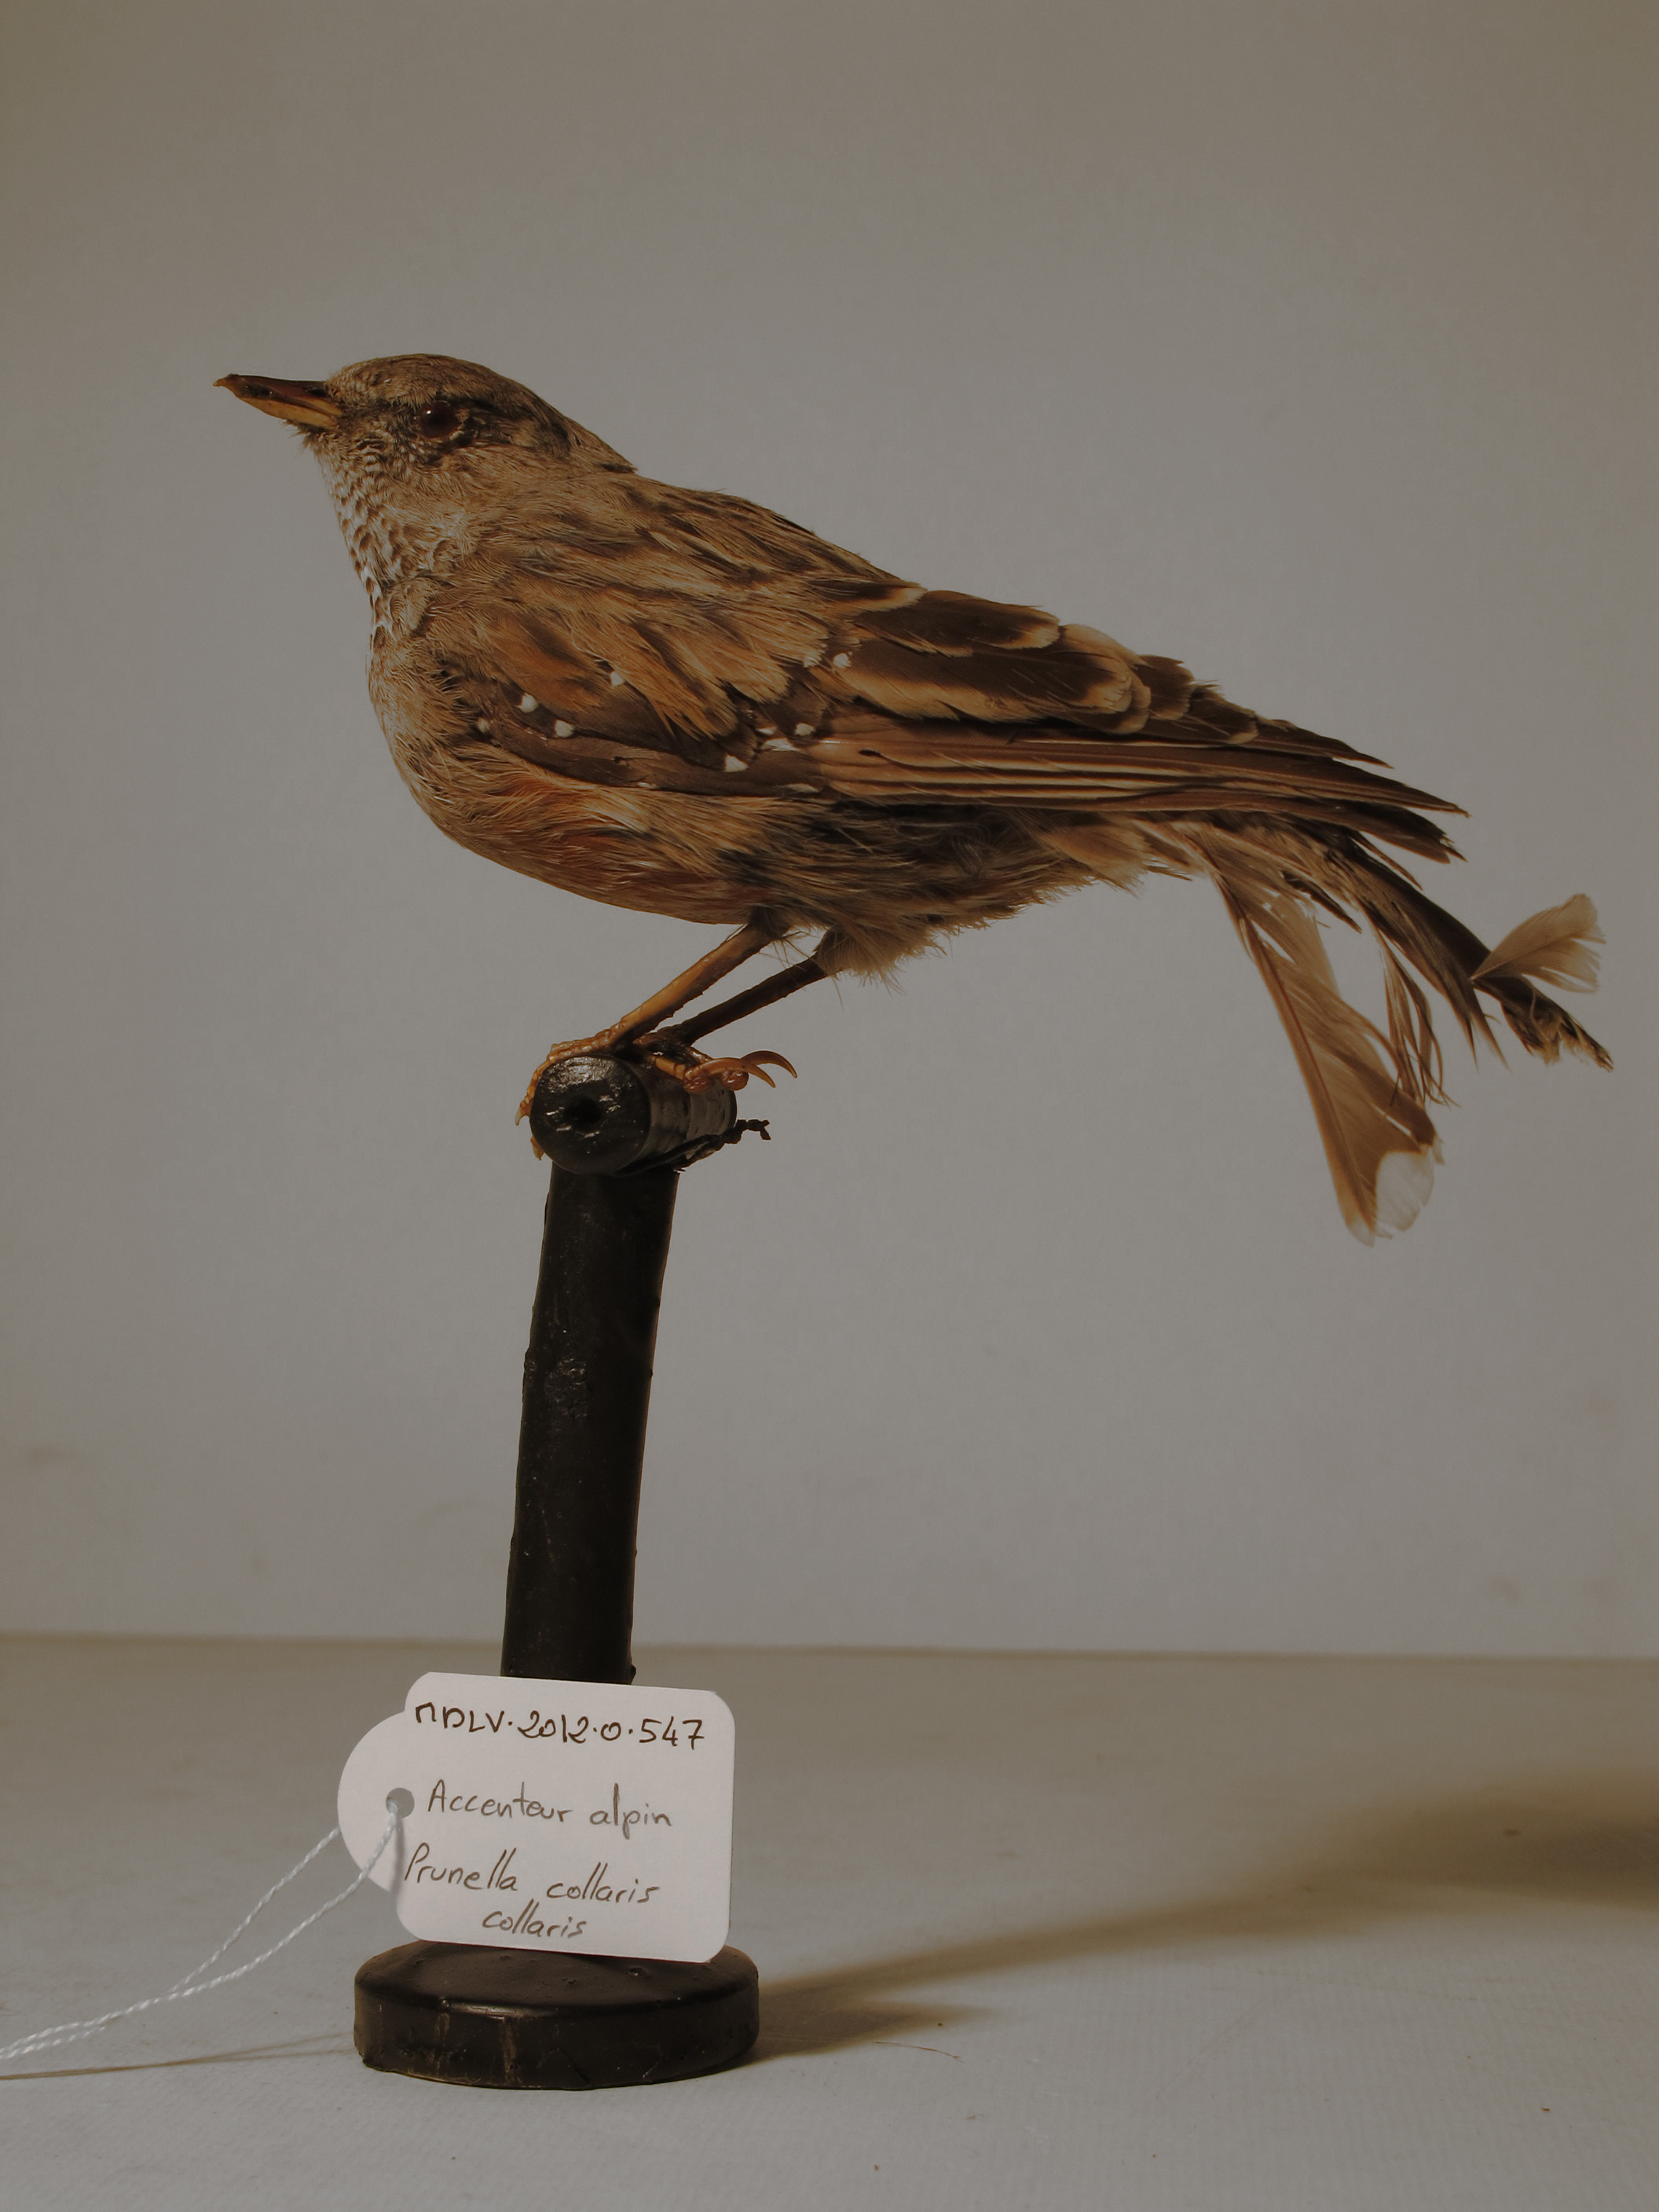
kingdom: Animalia
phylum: Chordata
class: Aves
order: Passeriformes
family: Prunellidae
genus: Prunella
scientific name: Prunella collaris
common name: Alpine Accentor
